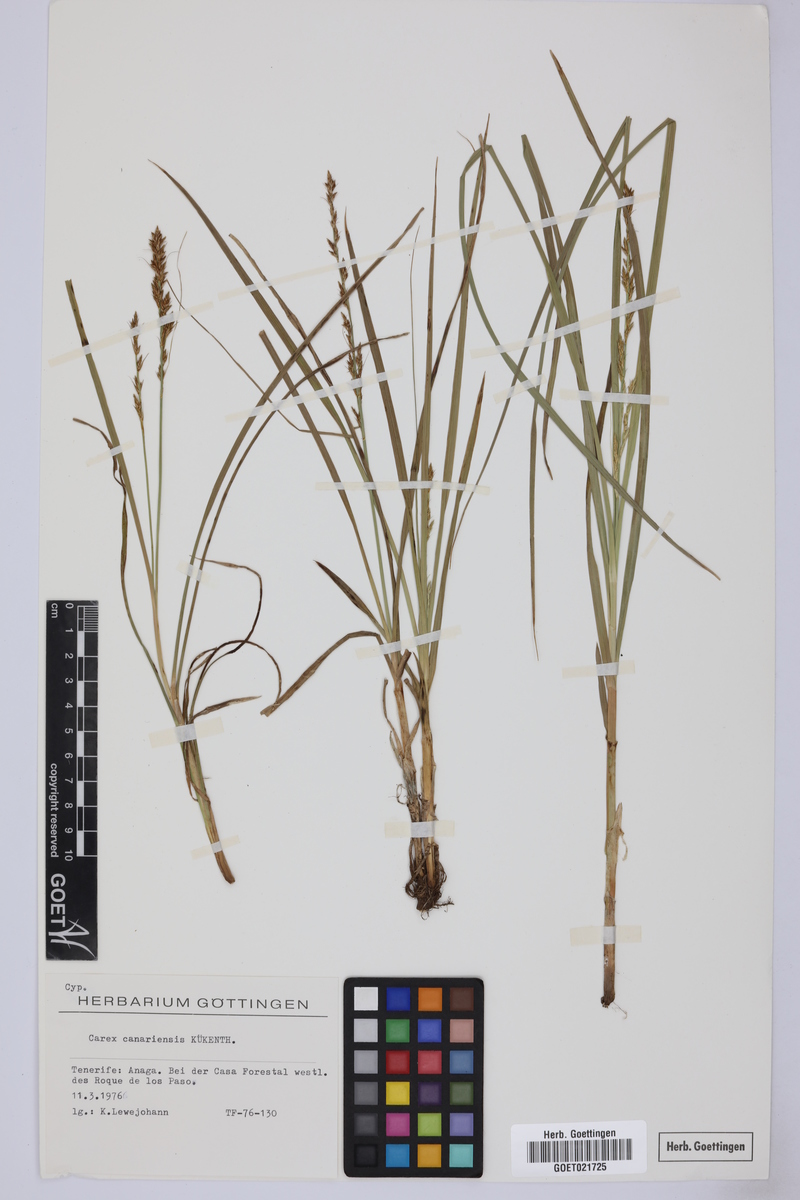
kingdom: Plantae
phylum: Tracheophyta
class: Liliopsida
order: Poales
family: Cyperaceae
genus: Carex
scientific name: Carex canariensis
